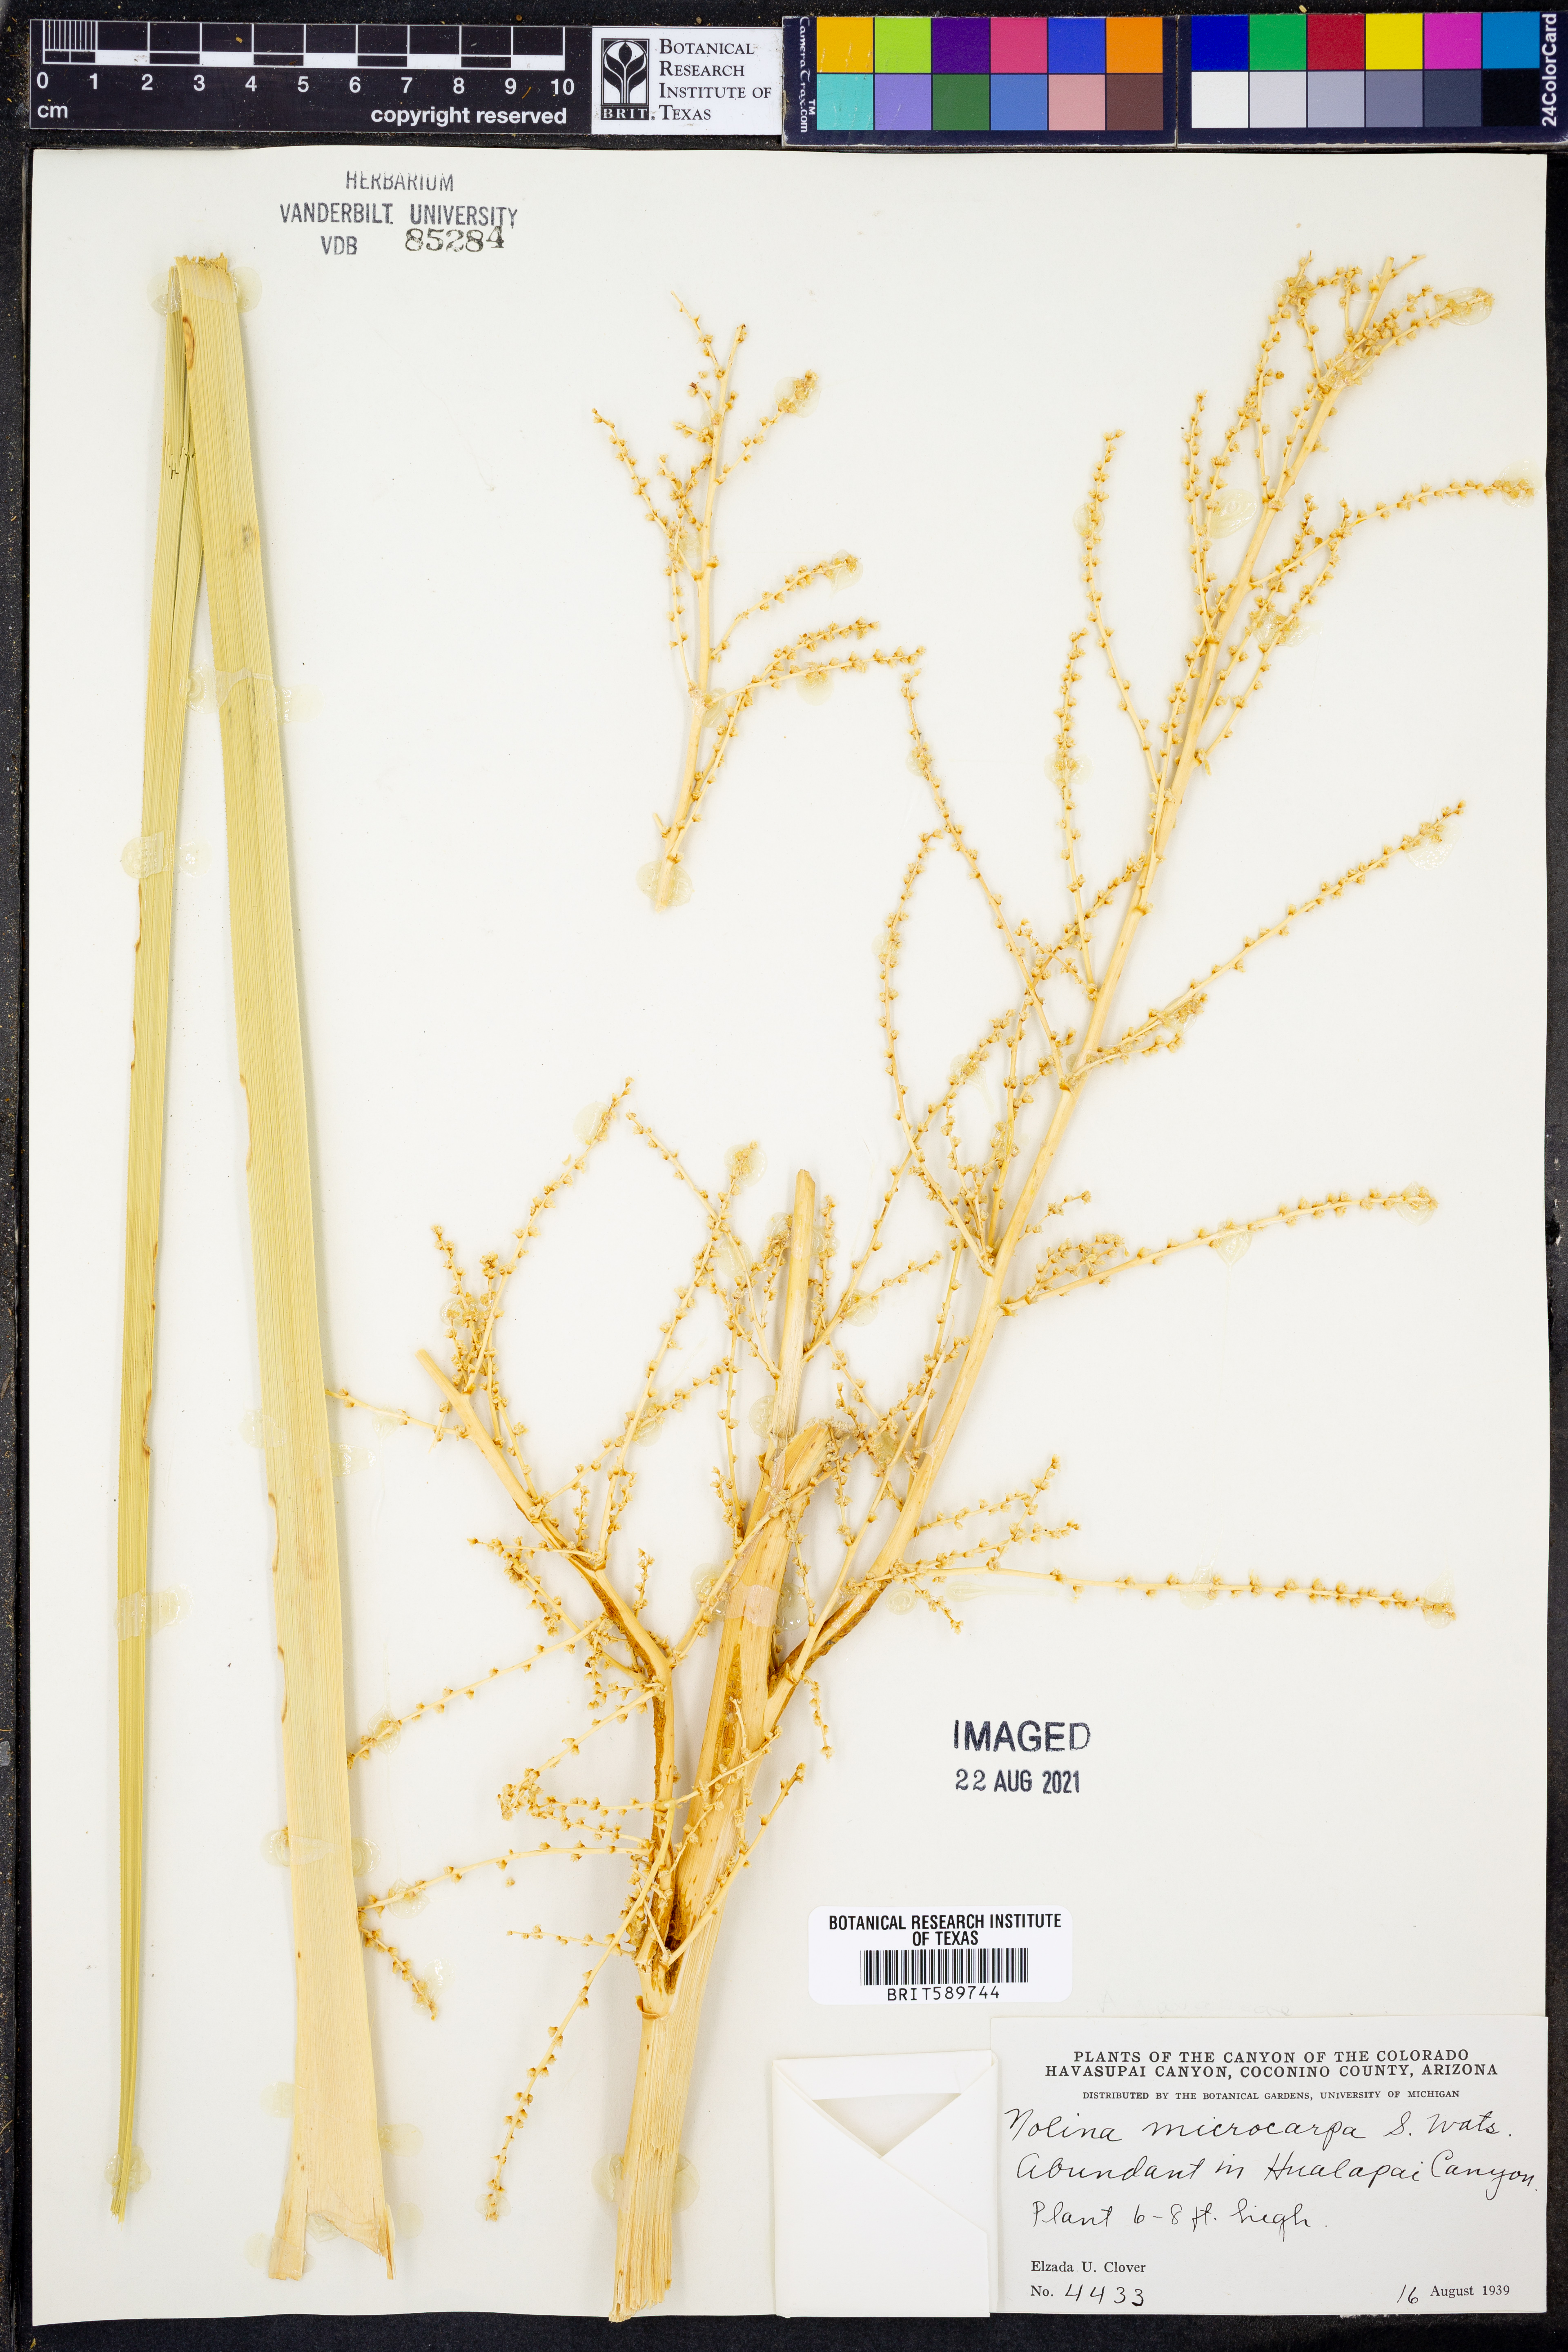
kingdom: Plantae
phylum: Tracheophyta
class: Liliopsida
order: Asparagales
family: Asparagaceae
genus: Nolina
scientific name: Nolina microcarpa
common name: Bear-grass
